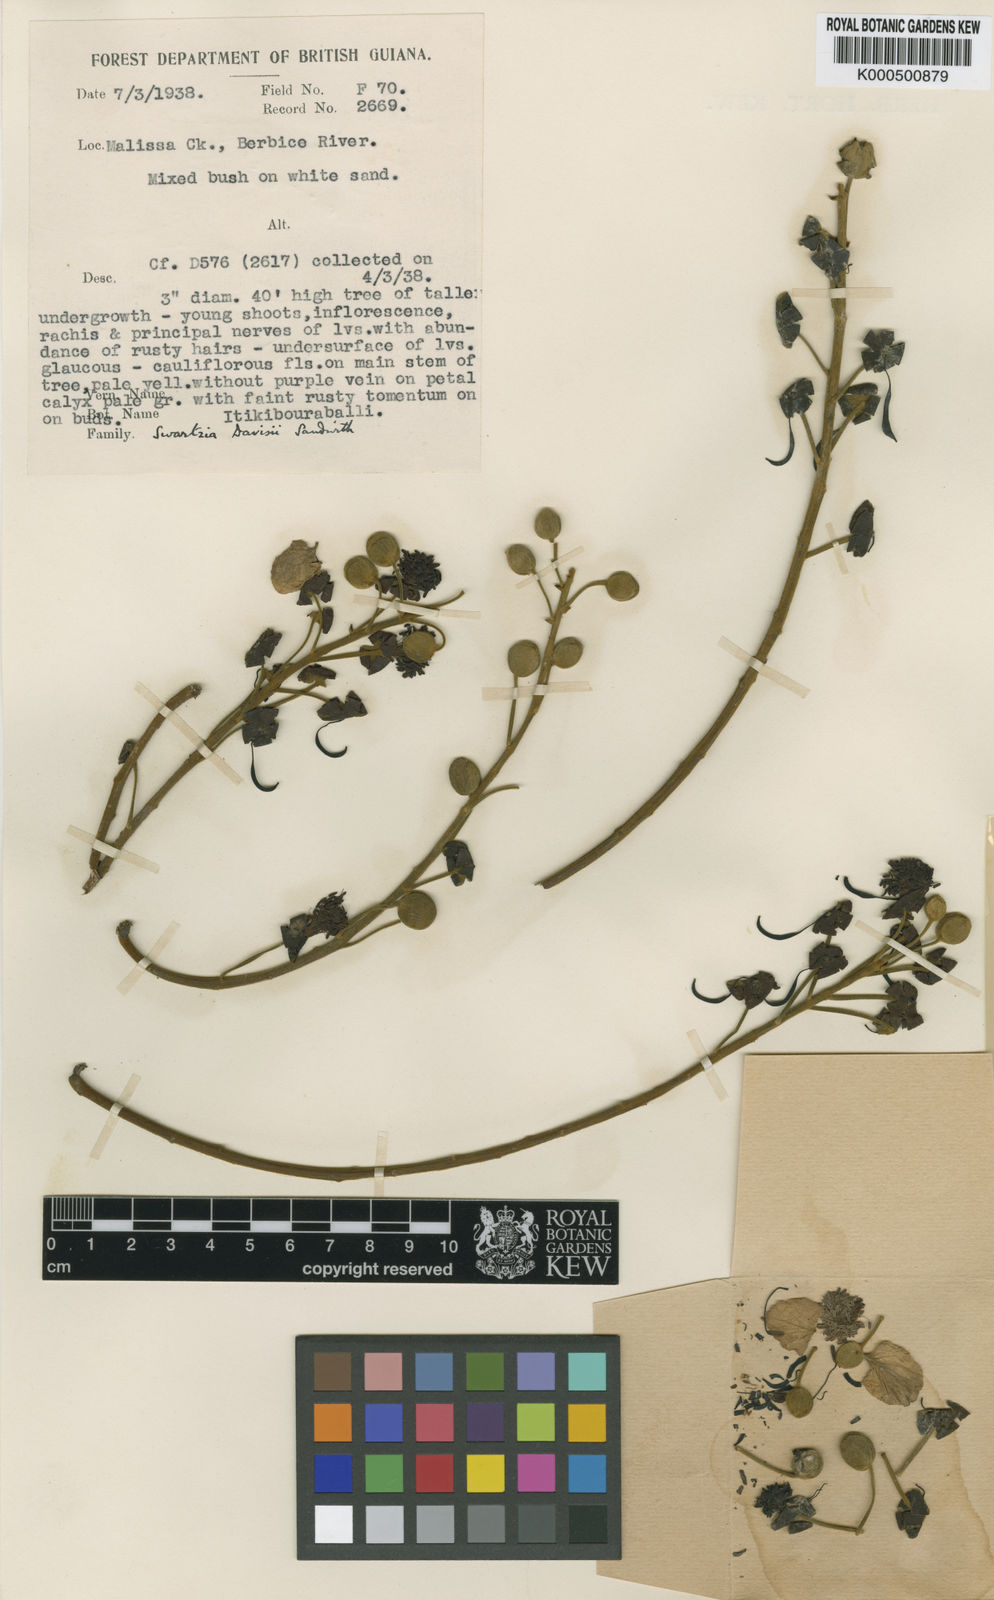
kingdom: Plantae
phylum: Tracheophyta
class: Magnoliopsida
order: Fabales
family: Fabaceae
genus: Swartzia
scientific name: Swartzia davisii
